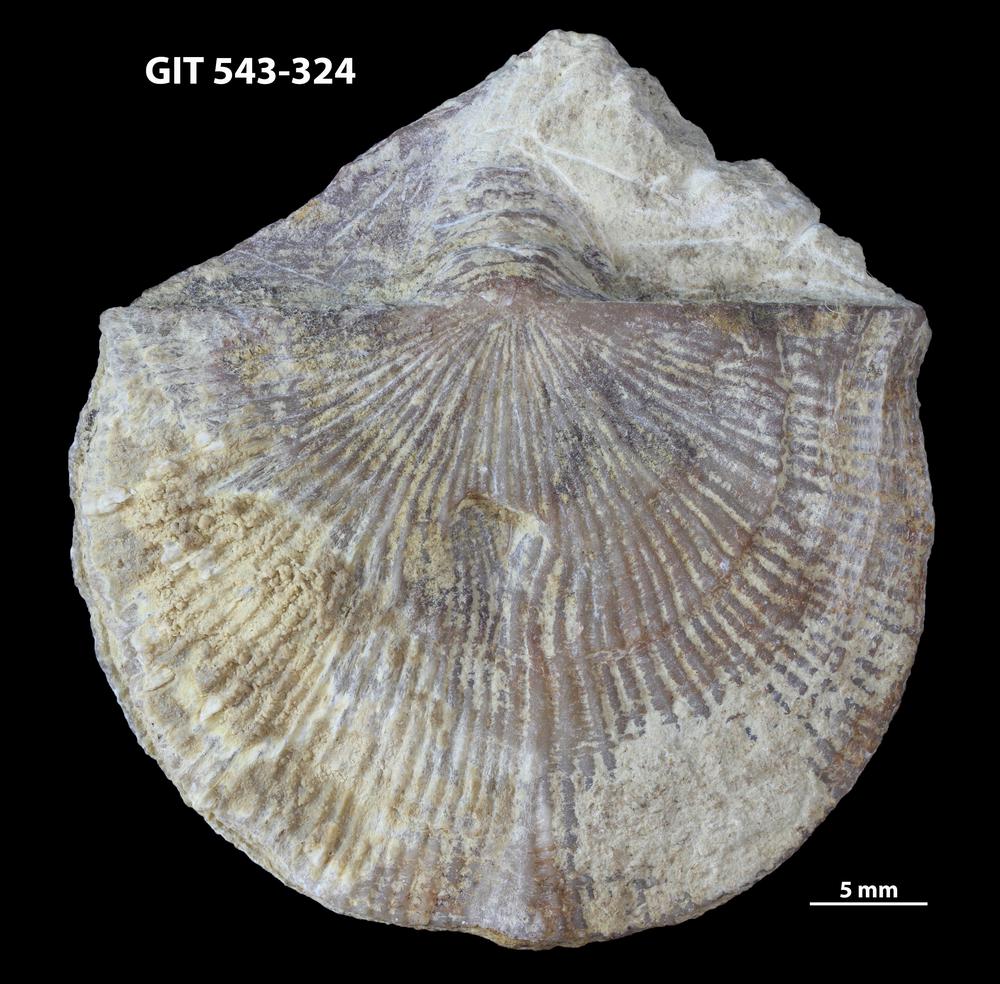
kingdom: Animalia
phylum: Brachiopoda
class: Rhynchonellata
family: Clitambonitidae
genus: Vellamo
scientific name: Vellamo Orthis verneuili
